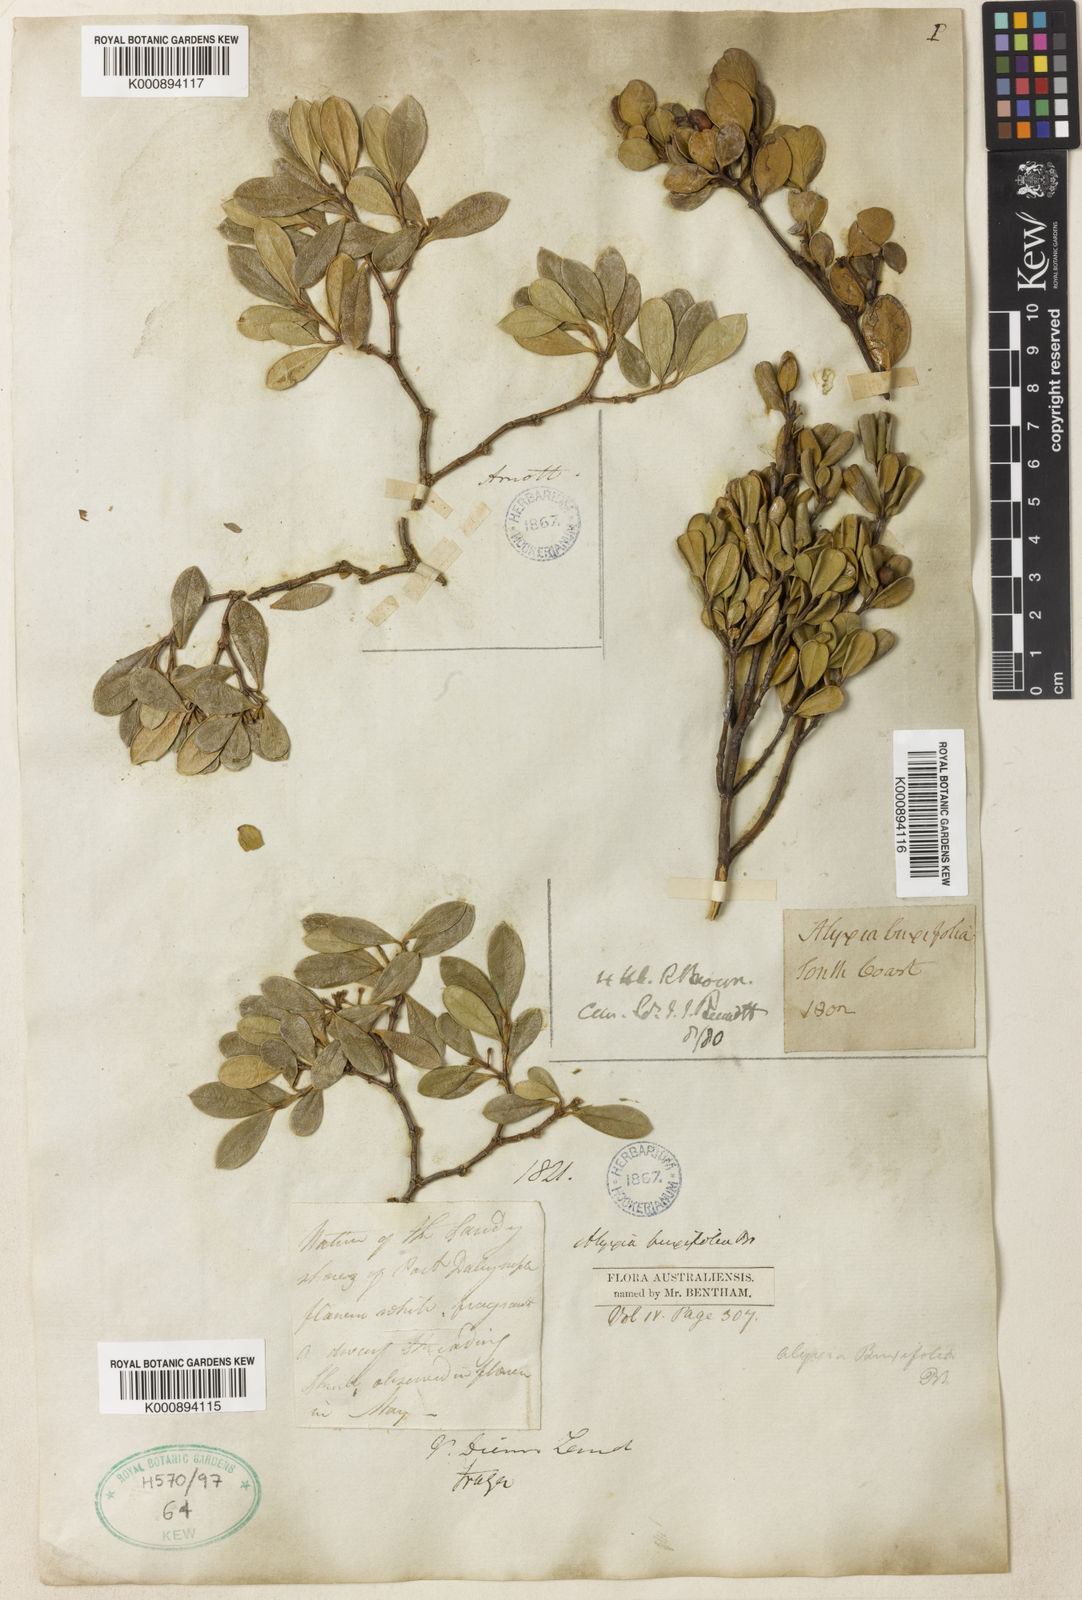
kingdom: Plantae
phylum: Tracheophyta
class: Magnoliopsida
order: Gentianales
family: Apocynaceae
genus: Alyxia
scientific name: Alyxia buxifolia
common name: Dysentery-bush
